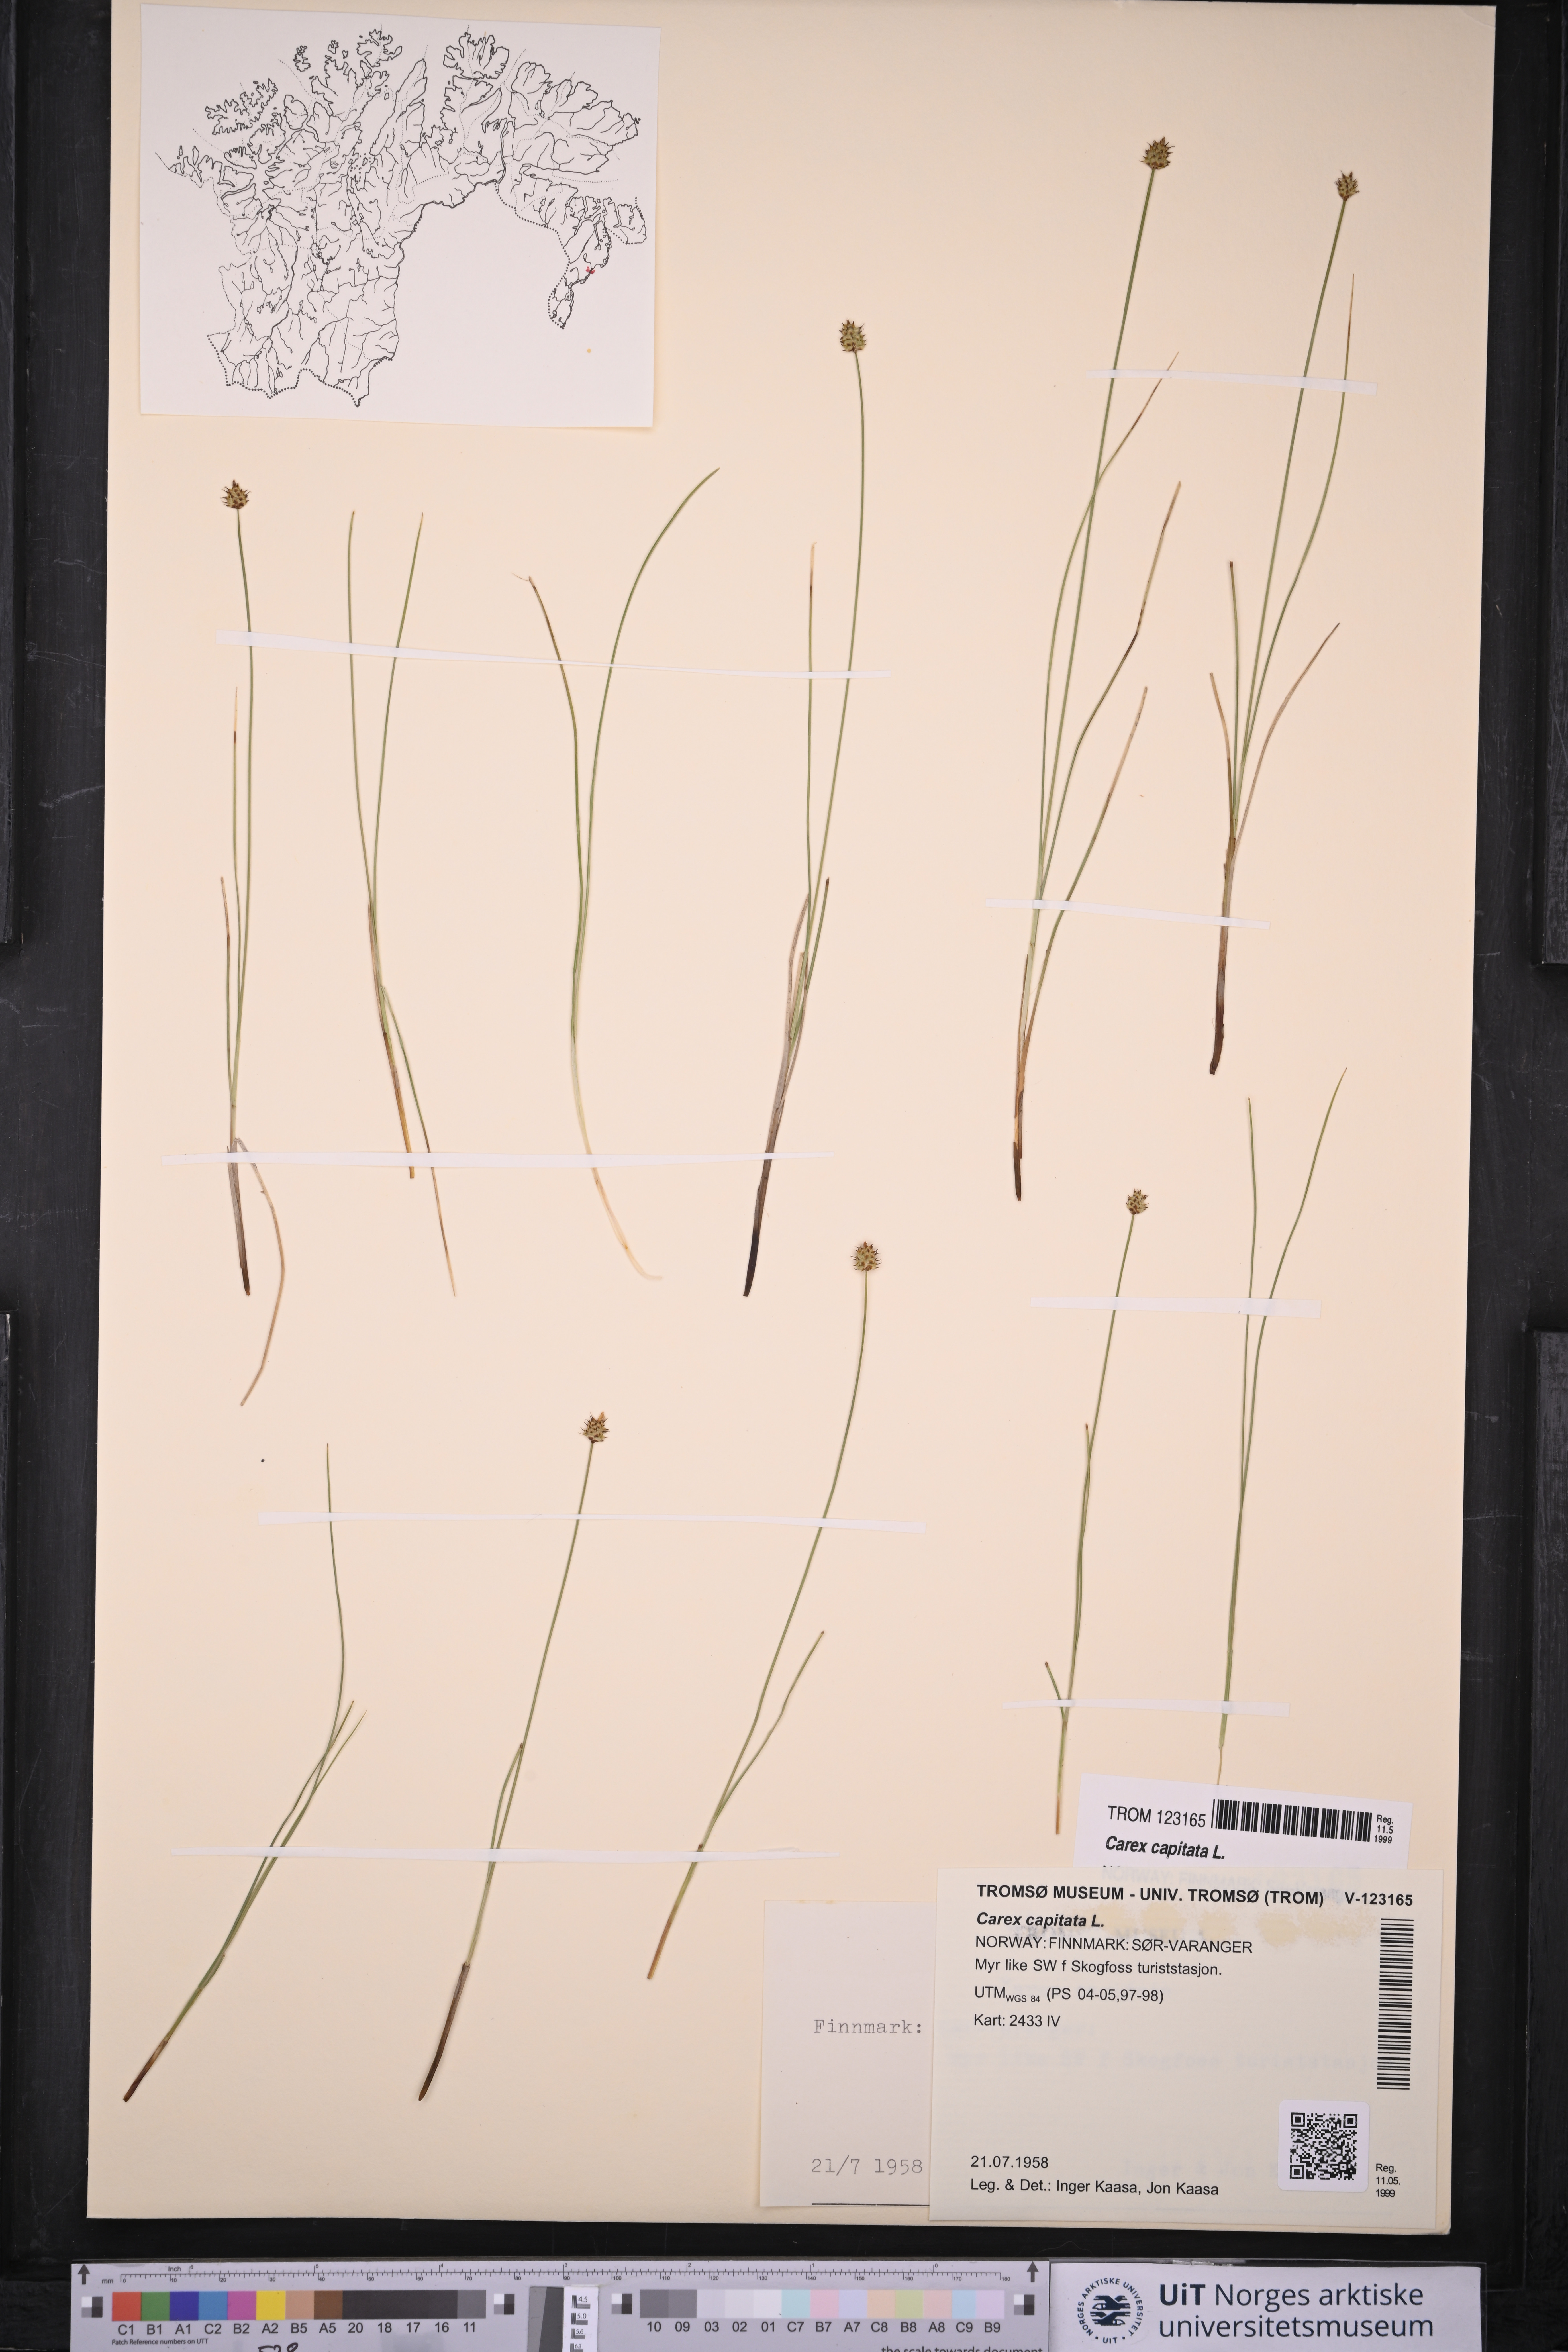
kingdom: Plantae
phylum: Tracheophyta
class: Liliopsida
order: Poales
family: Cyperaceae
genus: Carex
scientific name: Carex capitata
